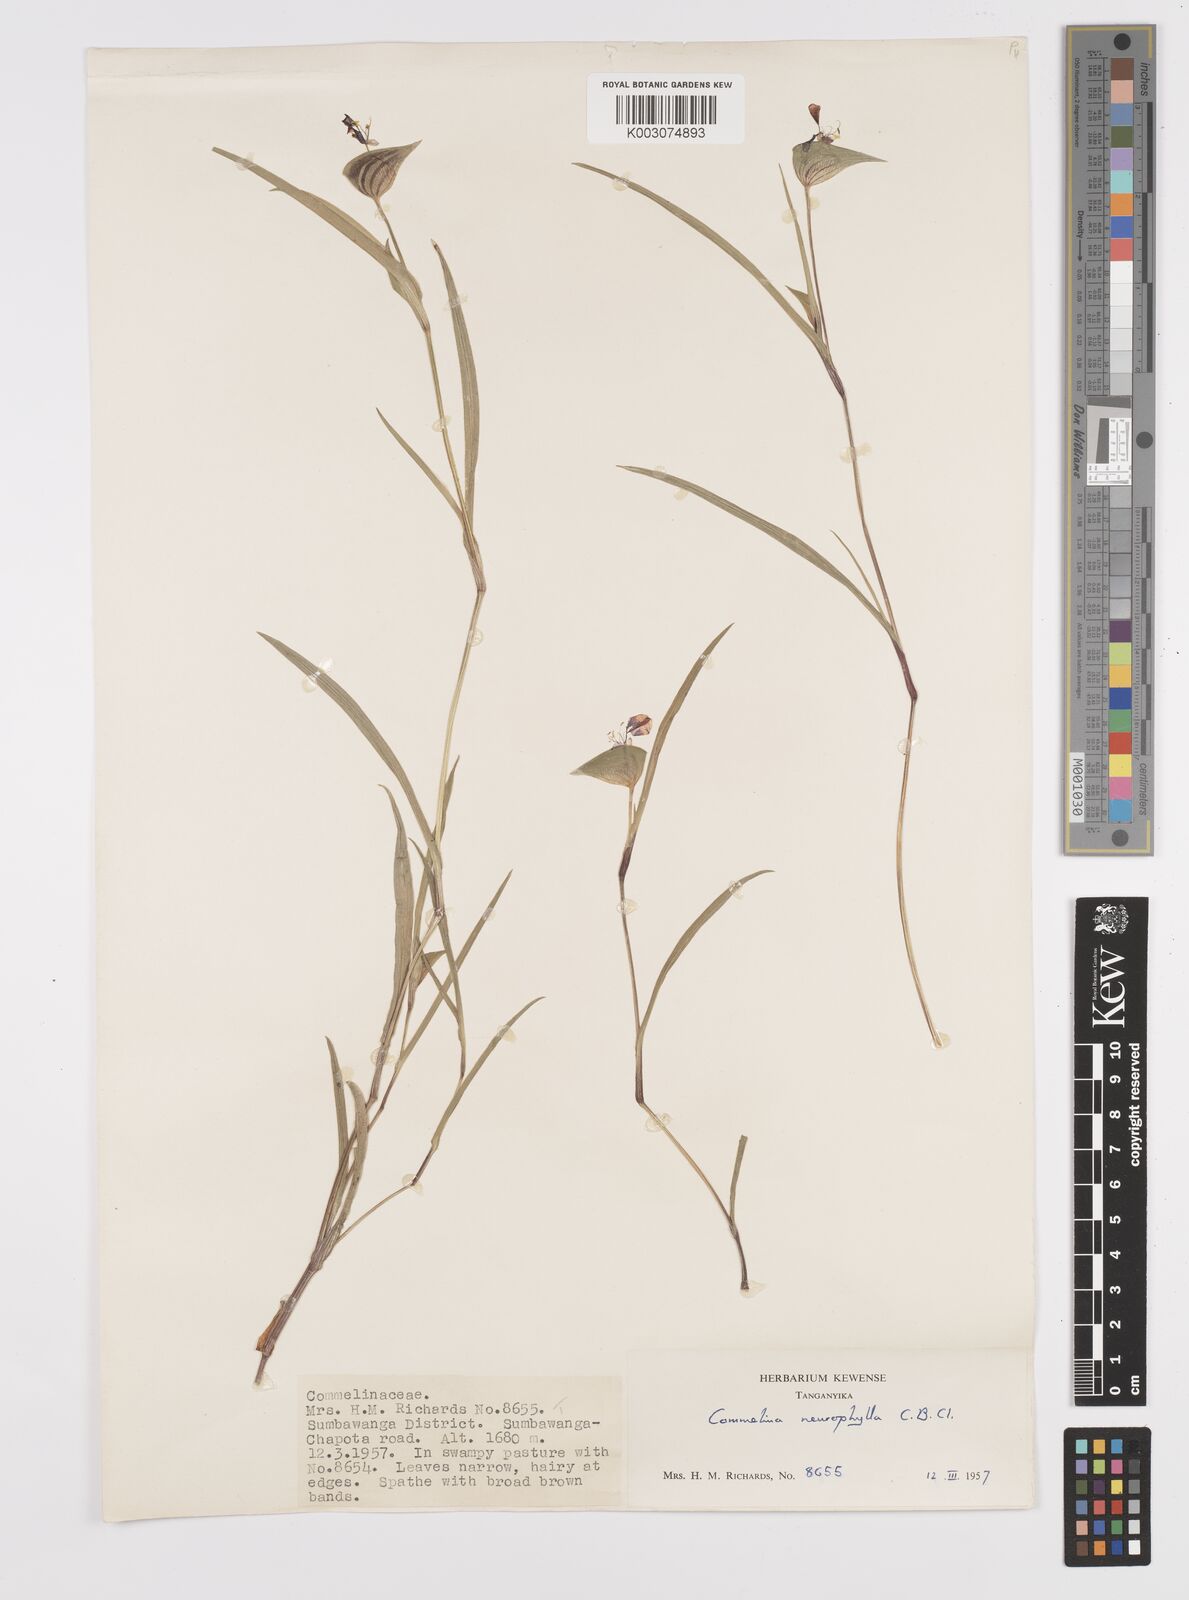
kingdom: Plantae
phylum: Tracheophyta
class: Liliopsida
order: Commelinales
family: Commelinaceae
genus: Commelina
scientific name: Commelina neurophylla
